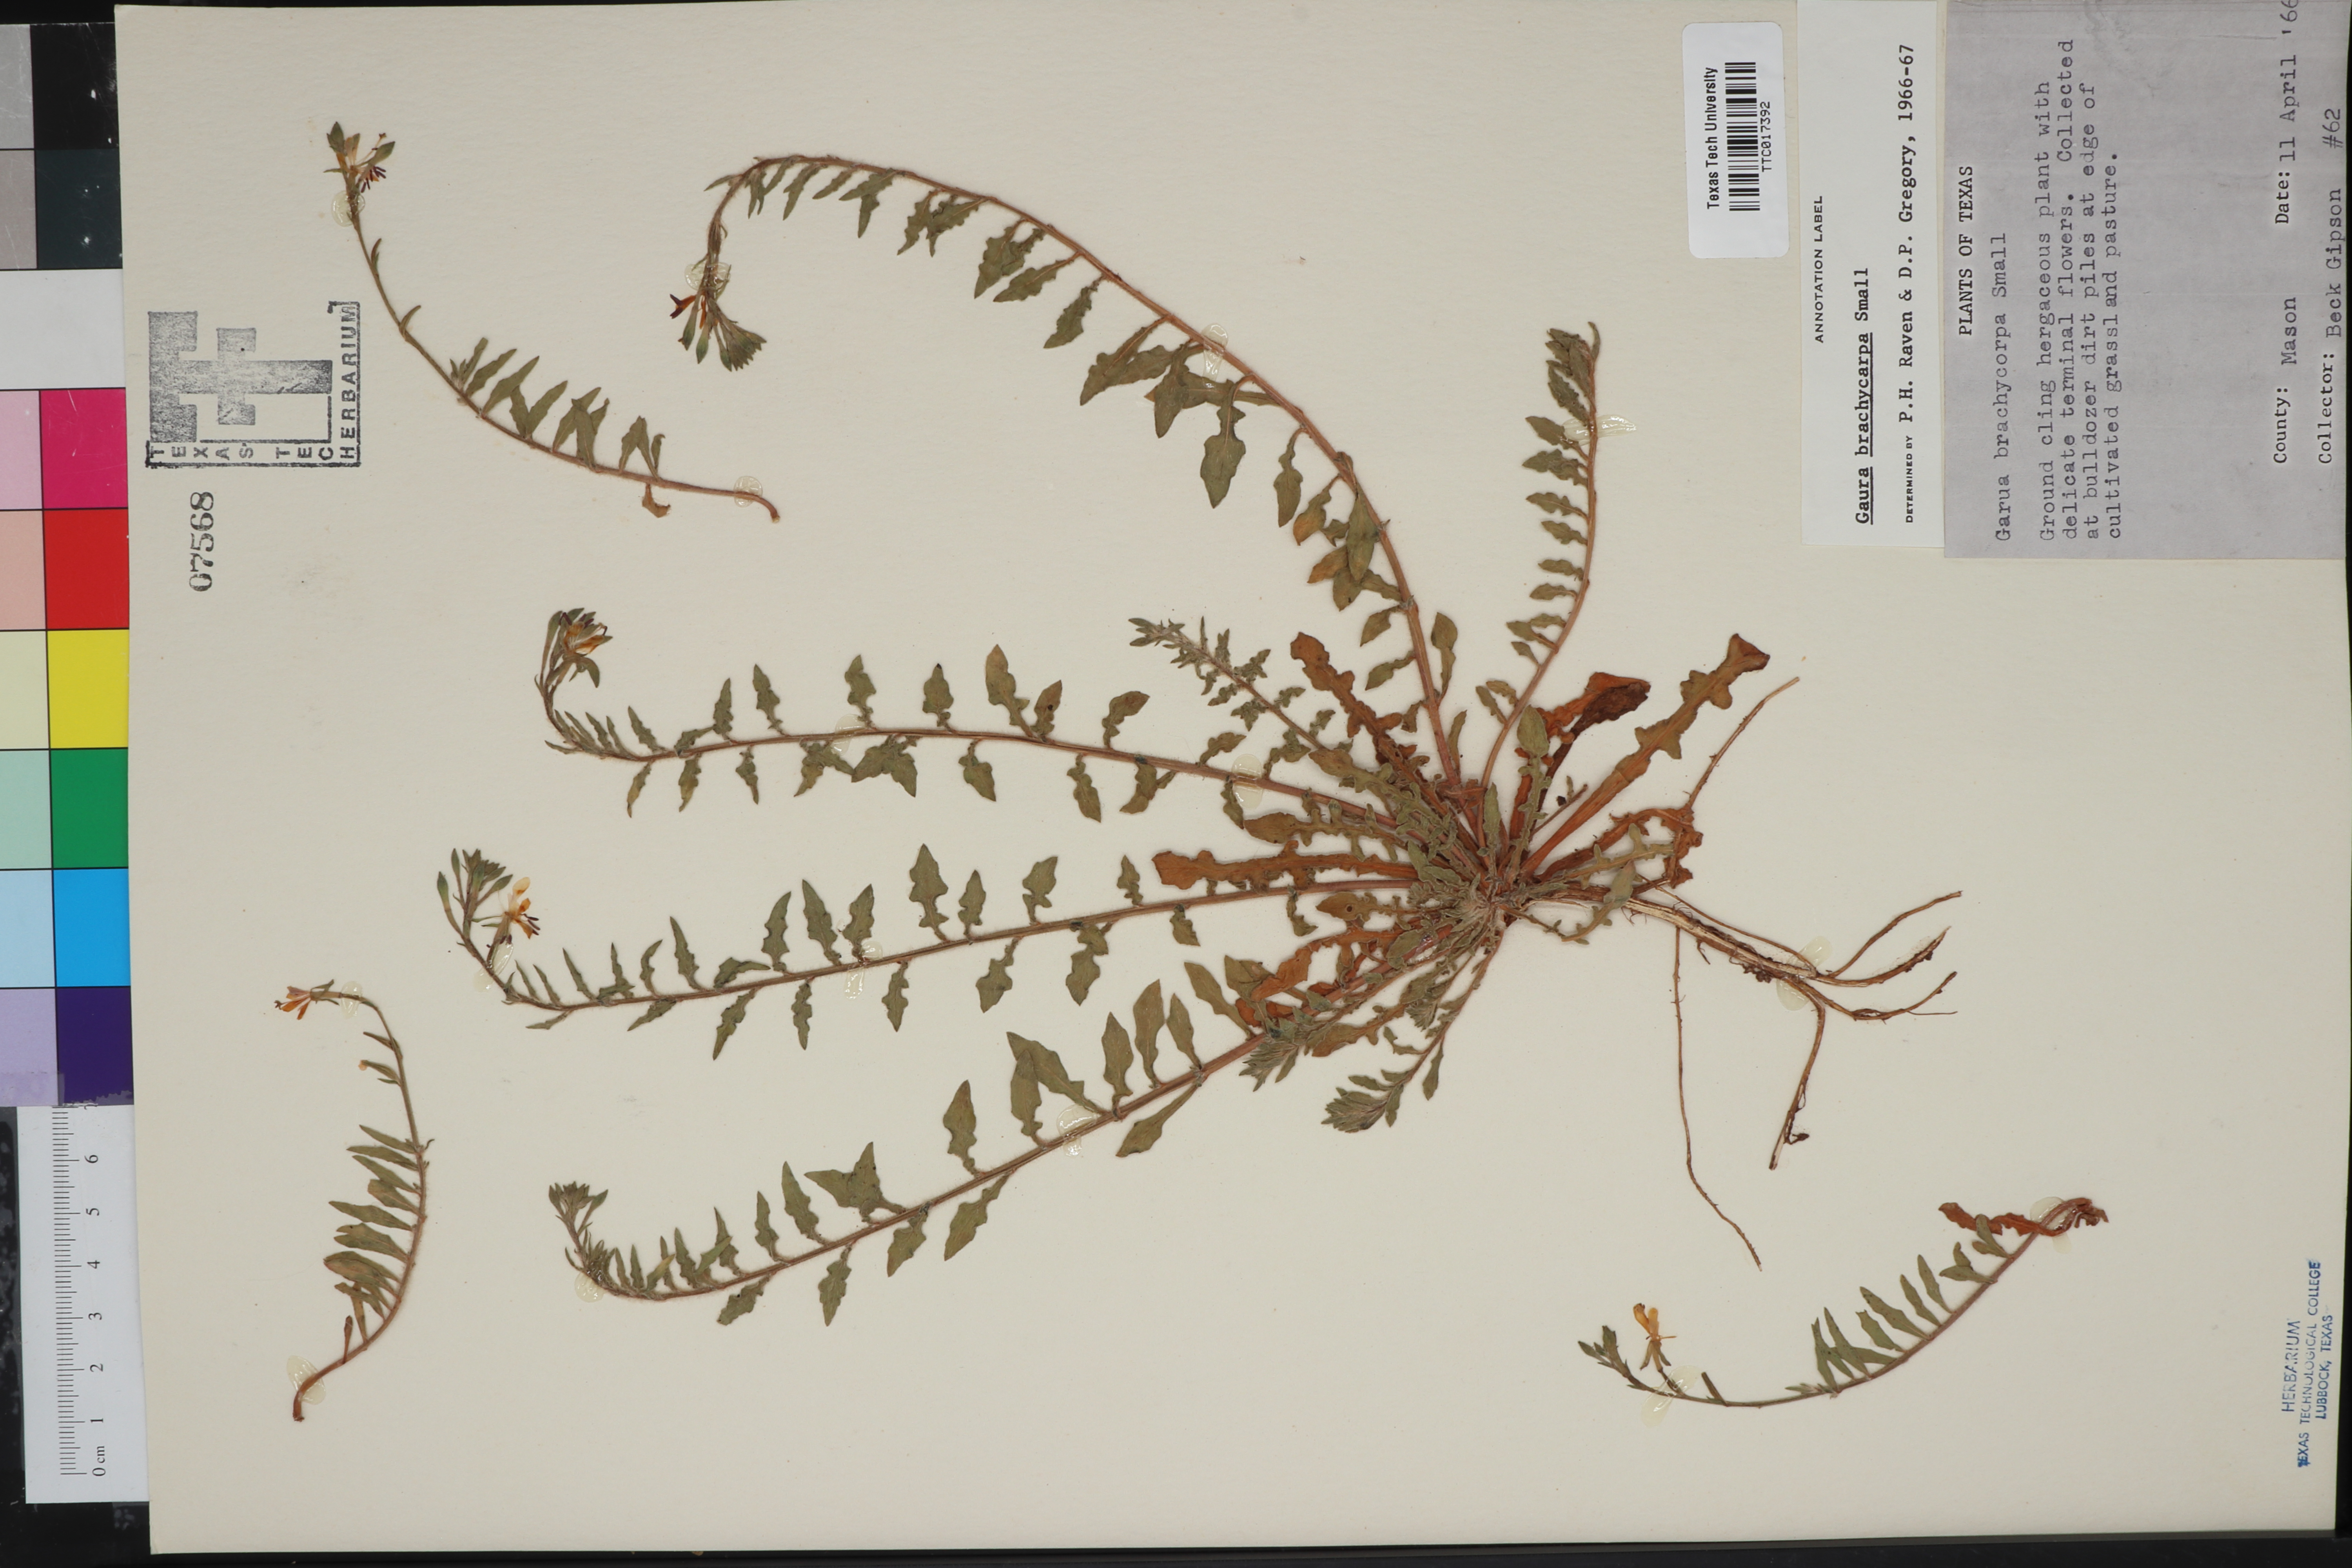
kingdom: Plantae
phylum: Tracheophyta
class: Magnoliopsida
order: Myrtales
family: Onagraceae
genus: Oenothera
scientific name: Oenothera patriciae
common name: Plains beeblossom
